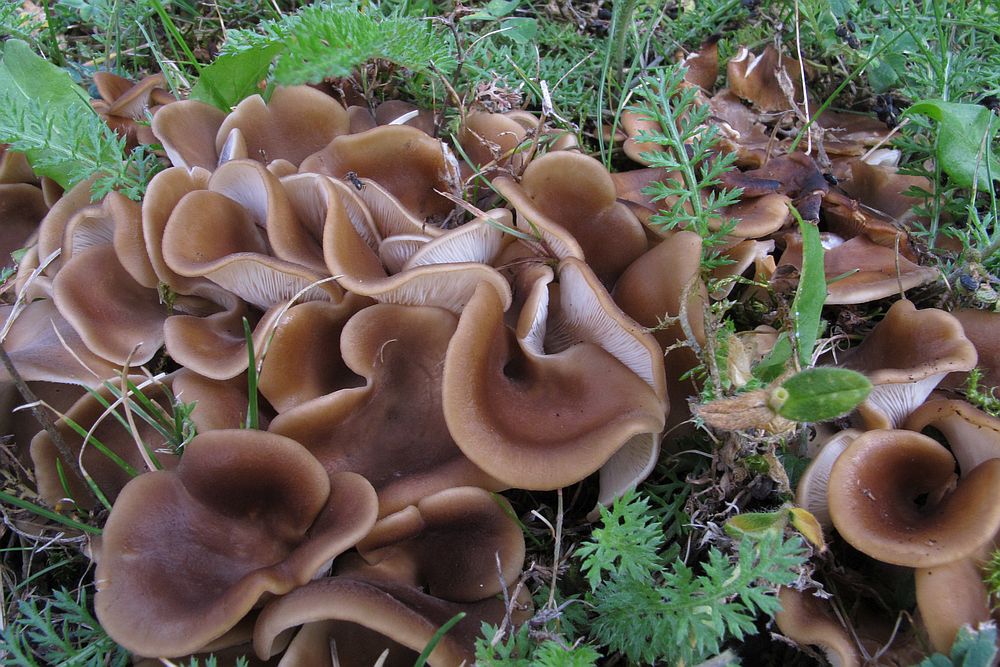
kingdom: Fungi
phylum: Basidiomycota
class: Agaricomycetes
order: Agaricales
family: Pleurotaceae
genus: Hohenbuehelia
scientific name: Hohenbuehelia petaloides
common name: stor filthat
